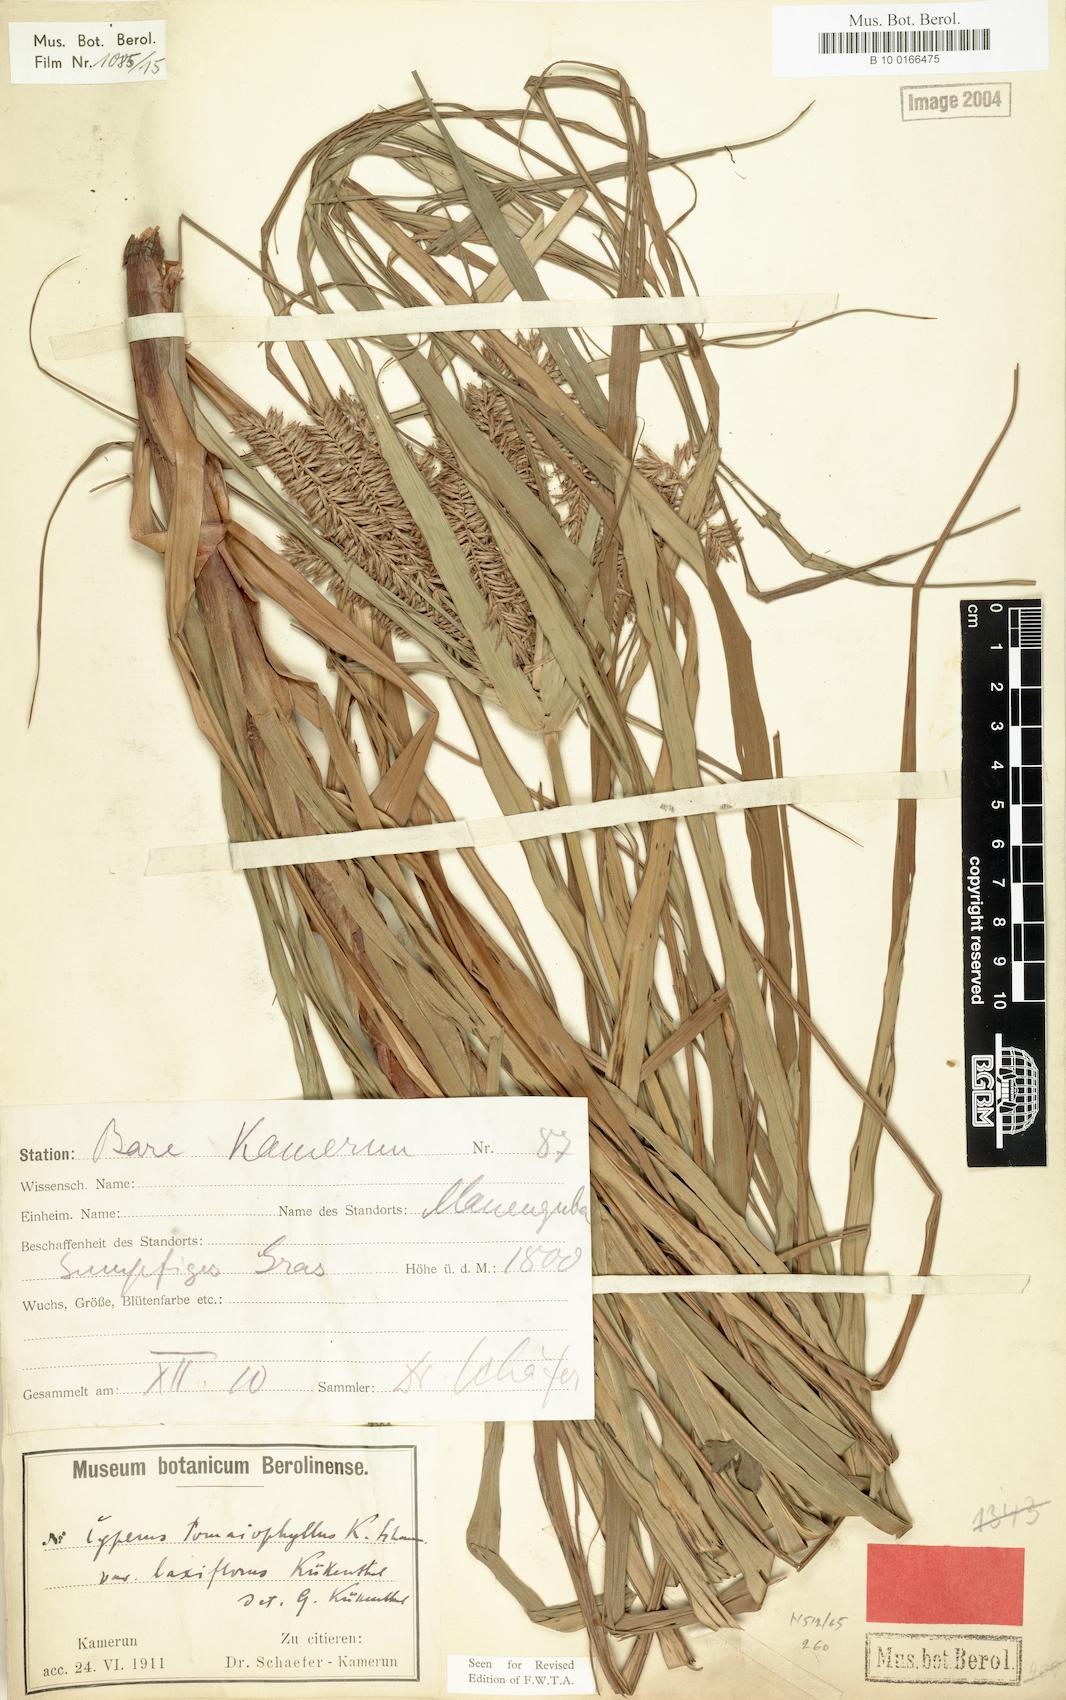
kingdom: Plantae
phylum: Tracheophyta
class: Liliopsida
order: Poales
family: Cyperaceae
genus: Cyperus
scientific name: Cyperus tomaiophyllus
